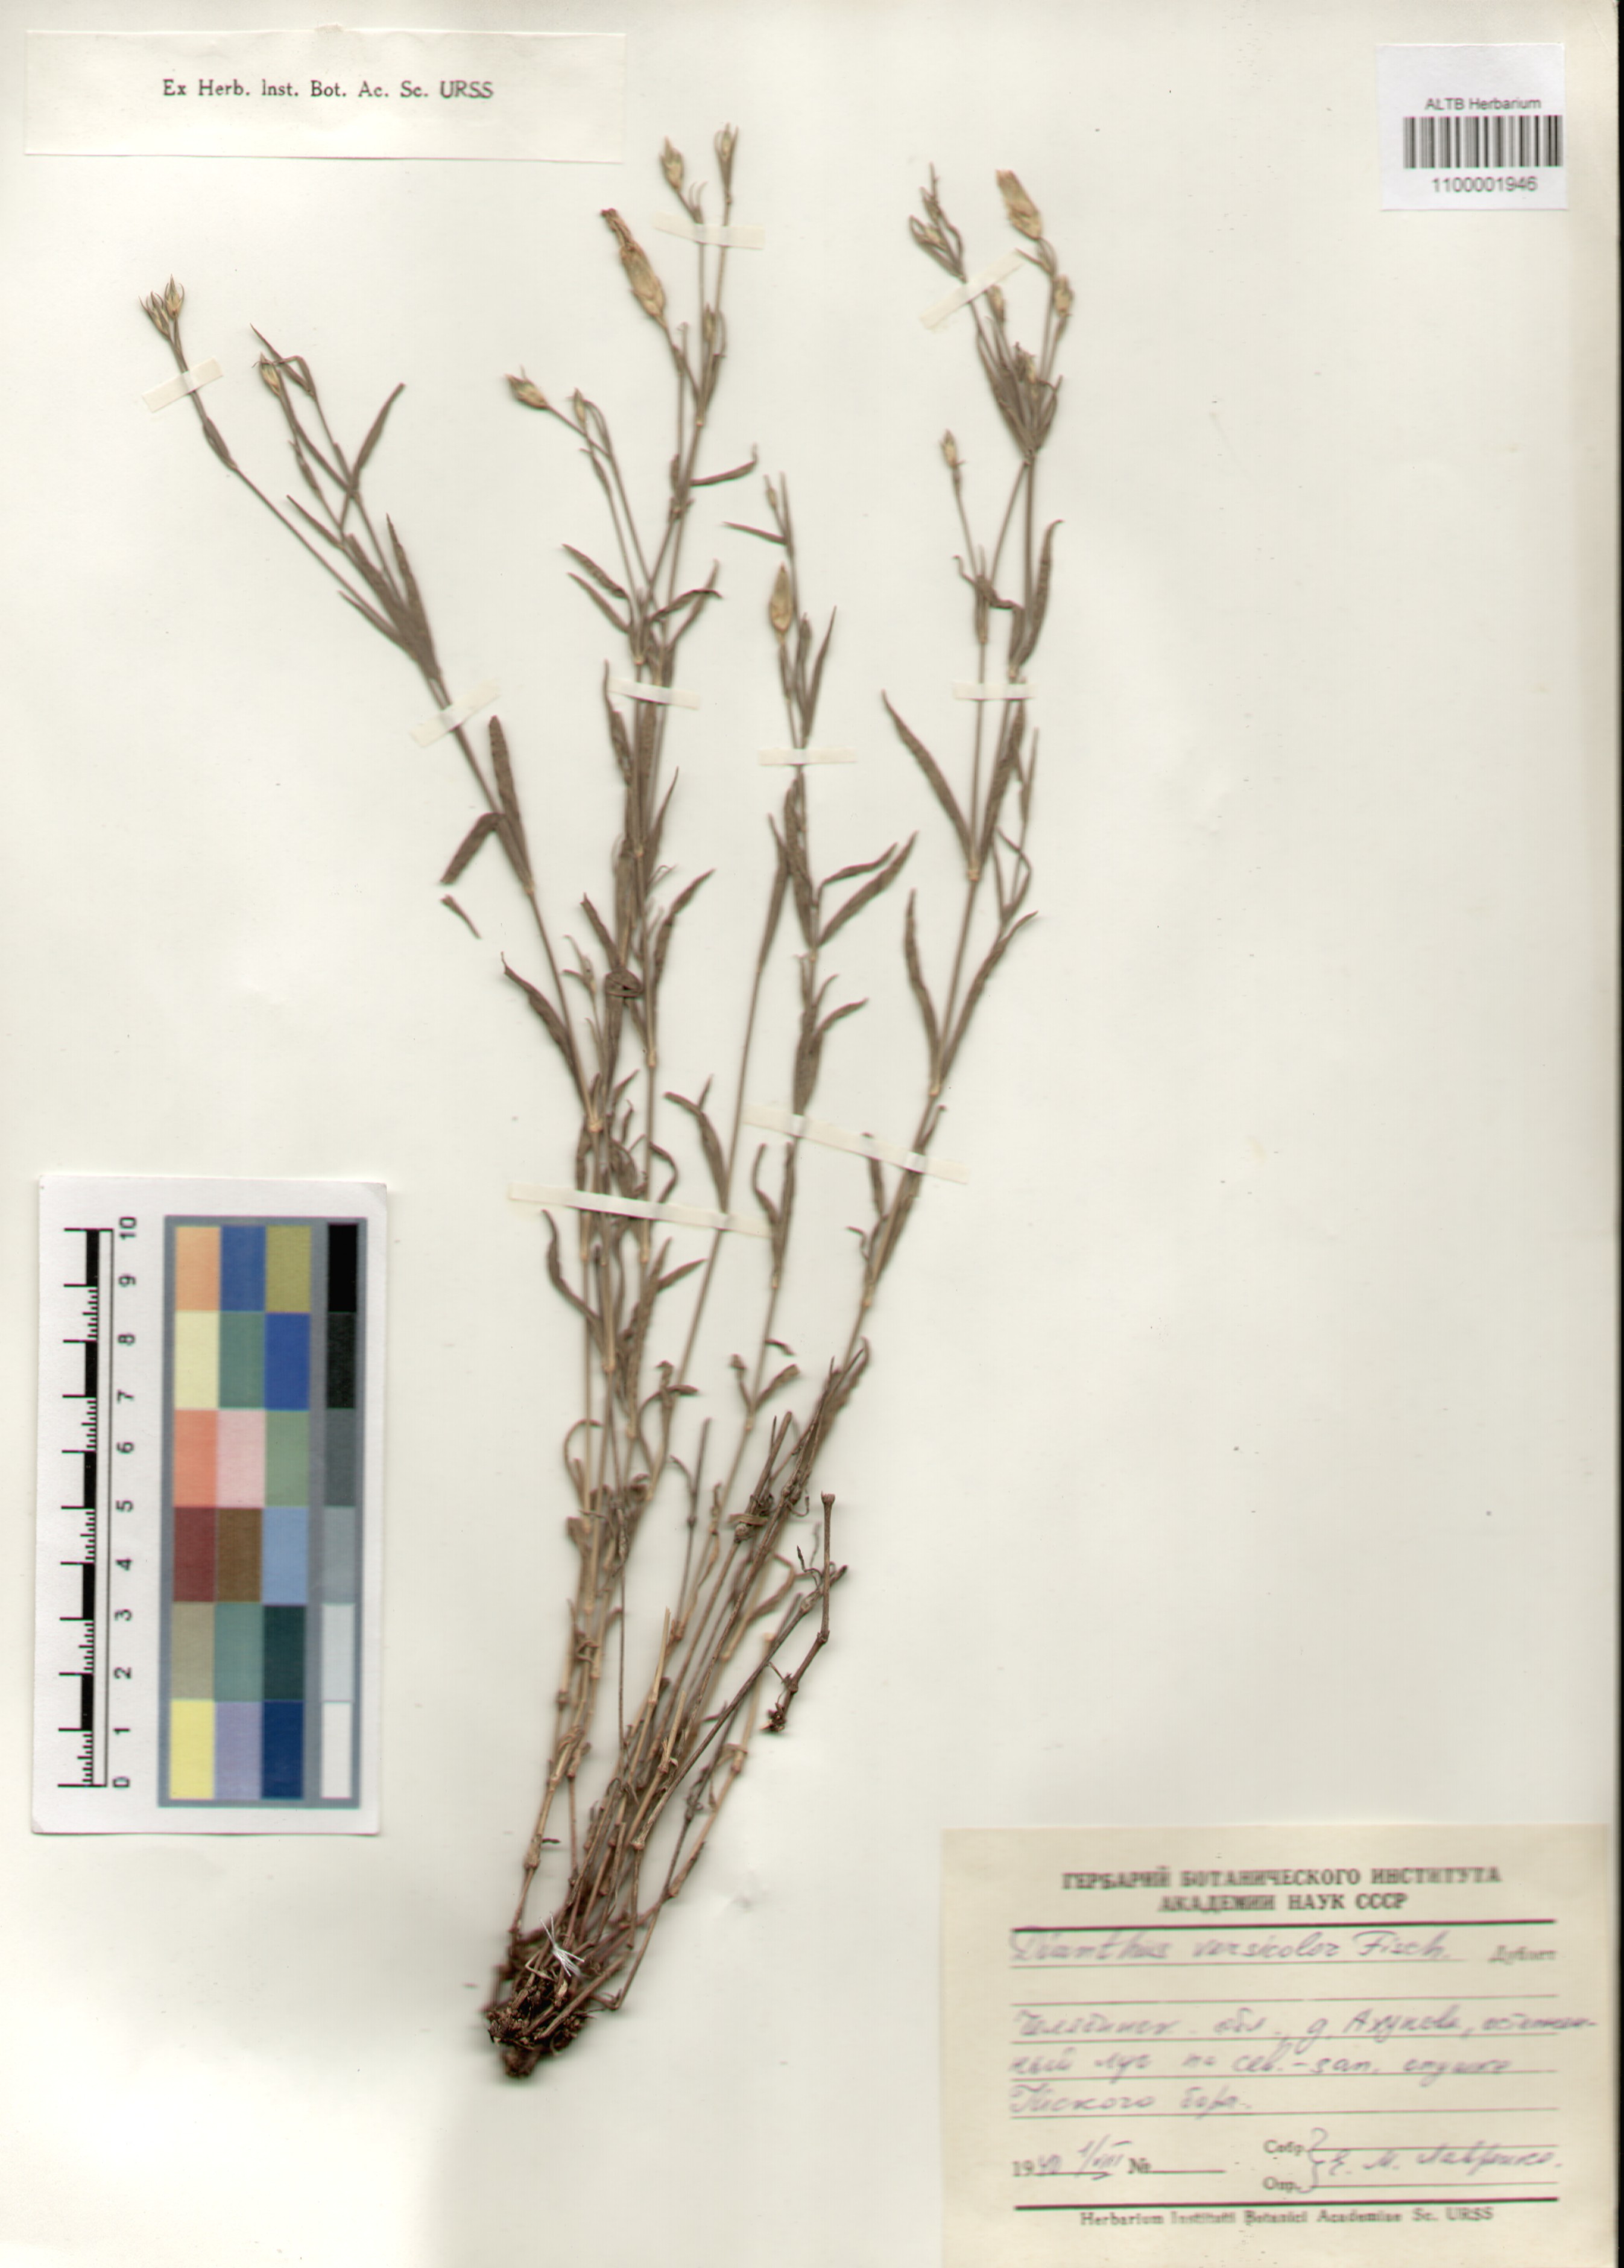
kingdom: Plantae
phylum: Tracheophyta
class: Magnoliopsida
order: Caryophyllales
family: Caryophyllaceae
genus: Dianthus
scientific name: Dianthus chinensis
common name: Rainbow pink
